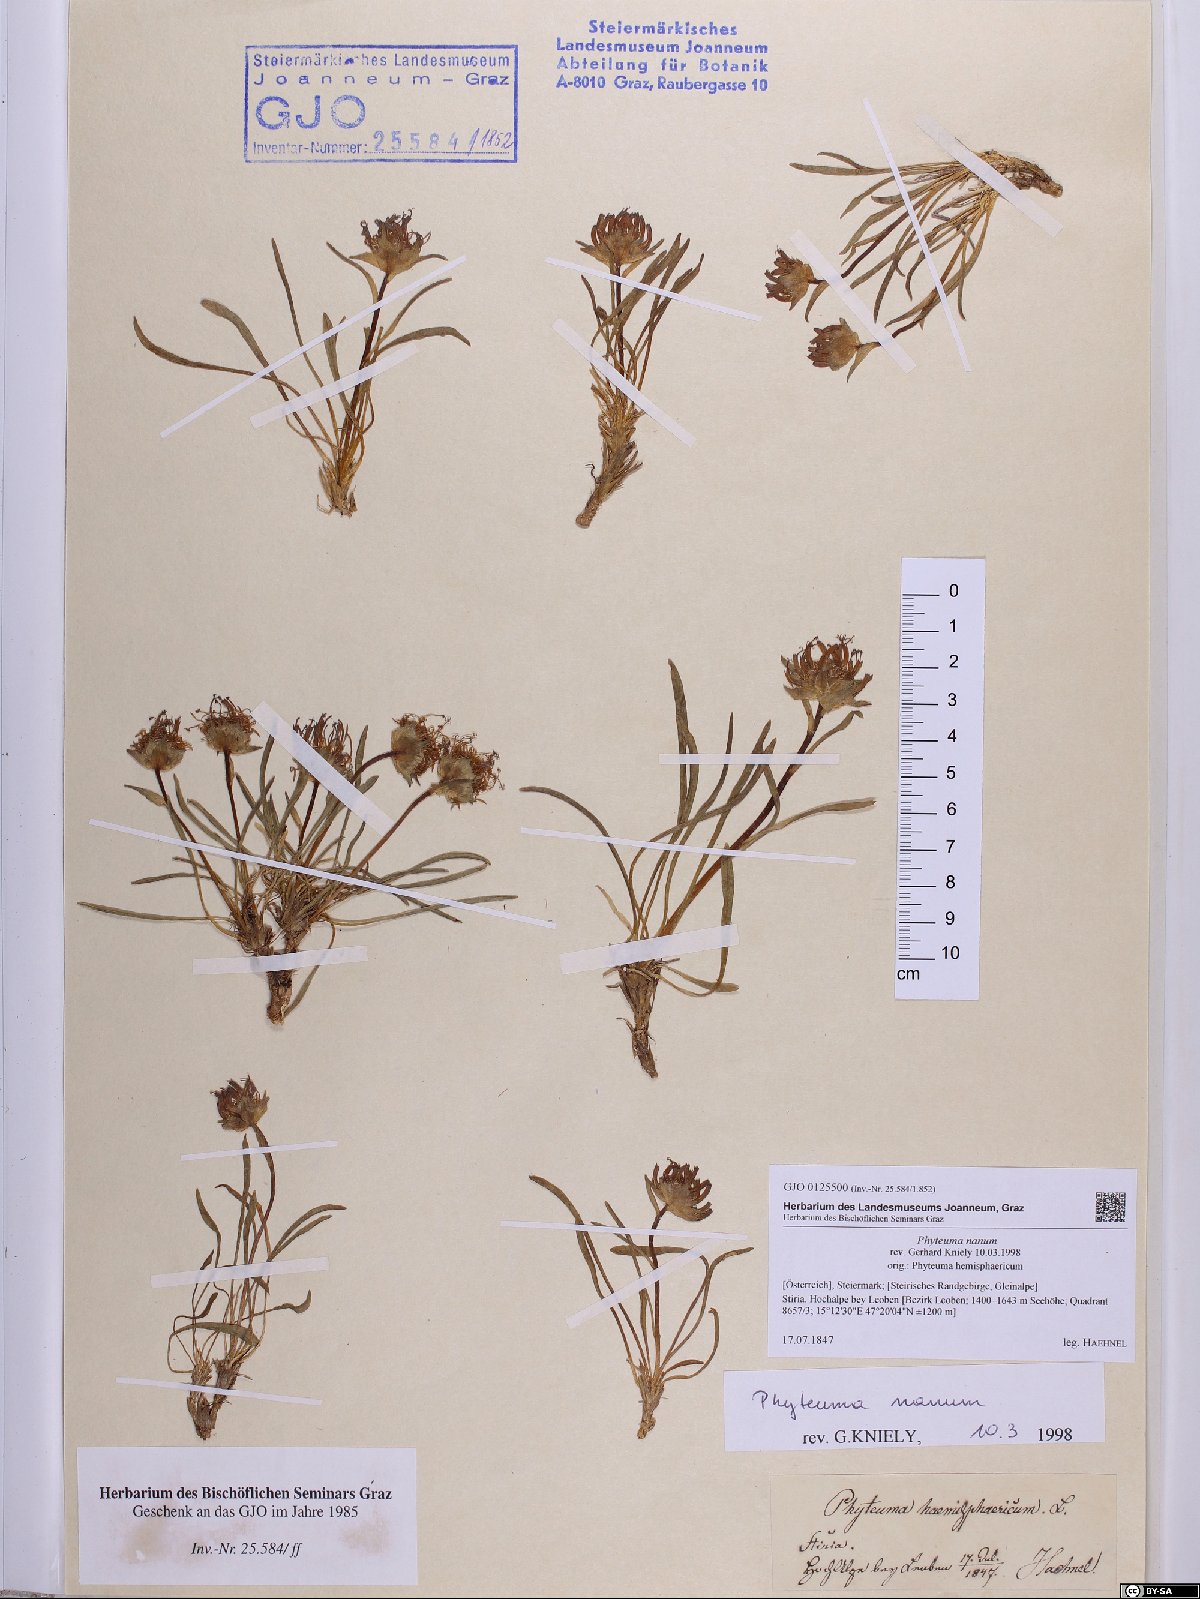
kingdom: Plantae
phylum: Tracheophyta
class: Magnoliopsida
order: Asterales
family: Campanulaceae
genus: Phyteuma
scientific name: Phyteuma globulariifolium
